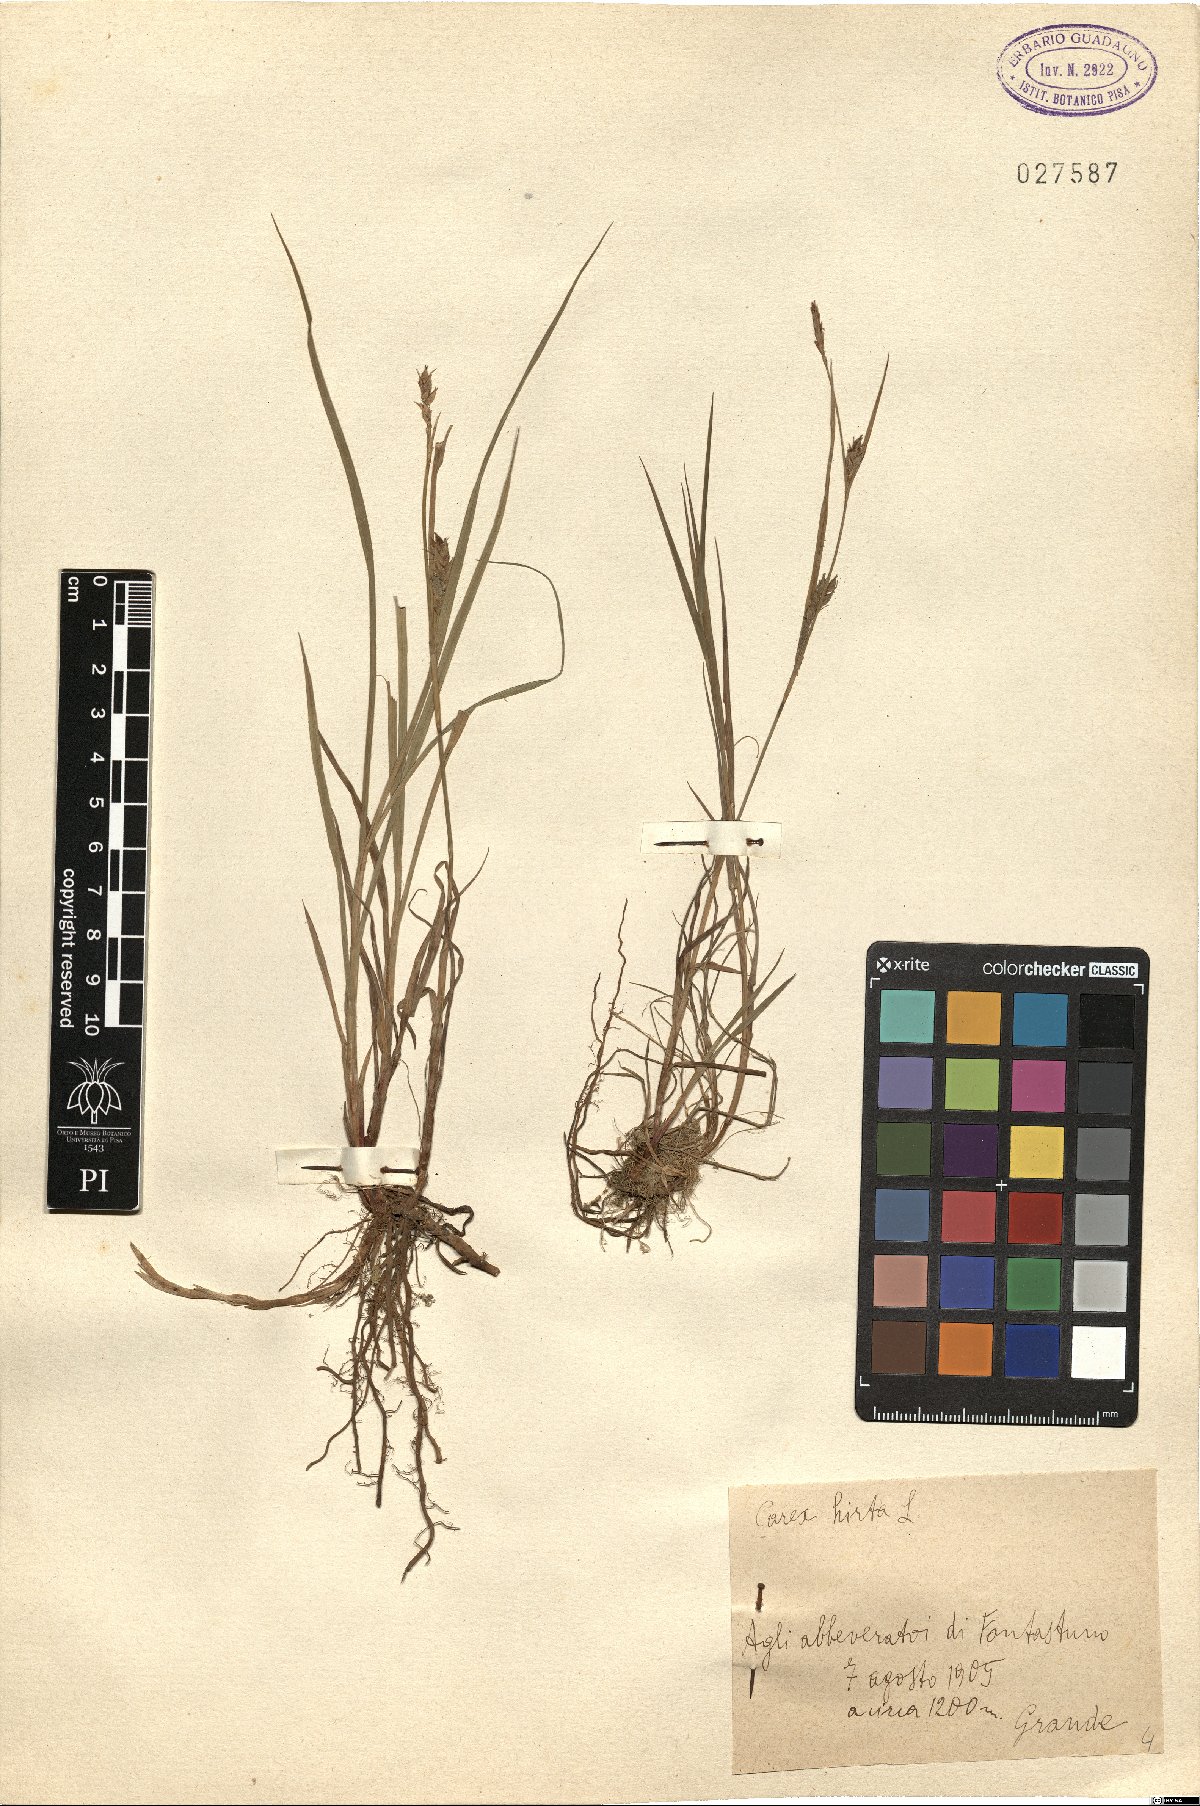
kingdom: Plantae
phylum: Tracheophyta
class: Liliopsida
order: Poales
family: Cyperaceae
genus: Carex
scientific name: Carex hirta
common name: Hairy sedge
